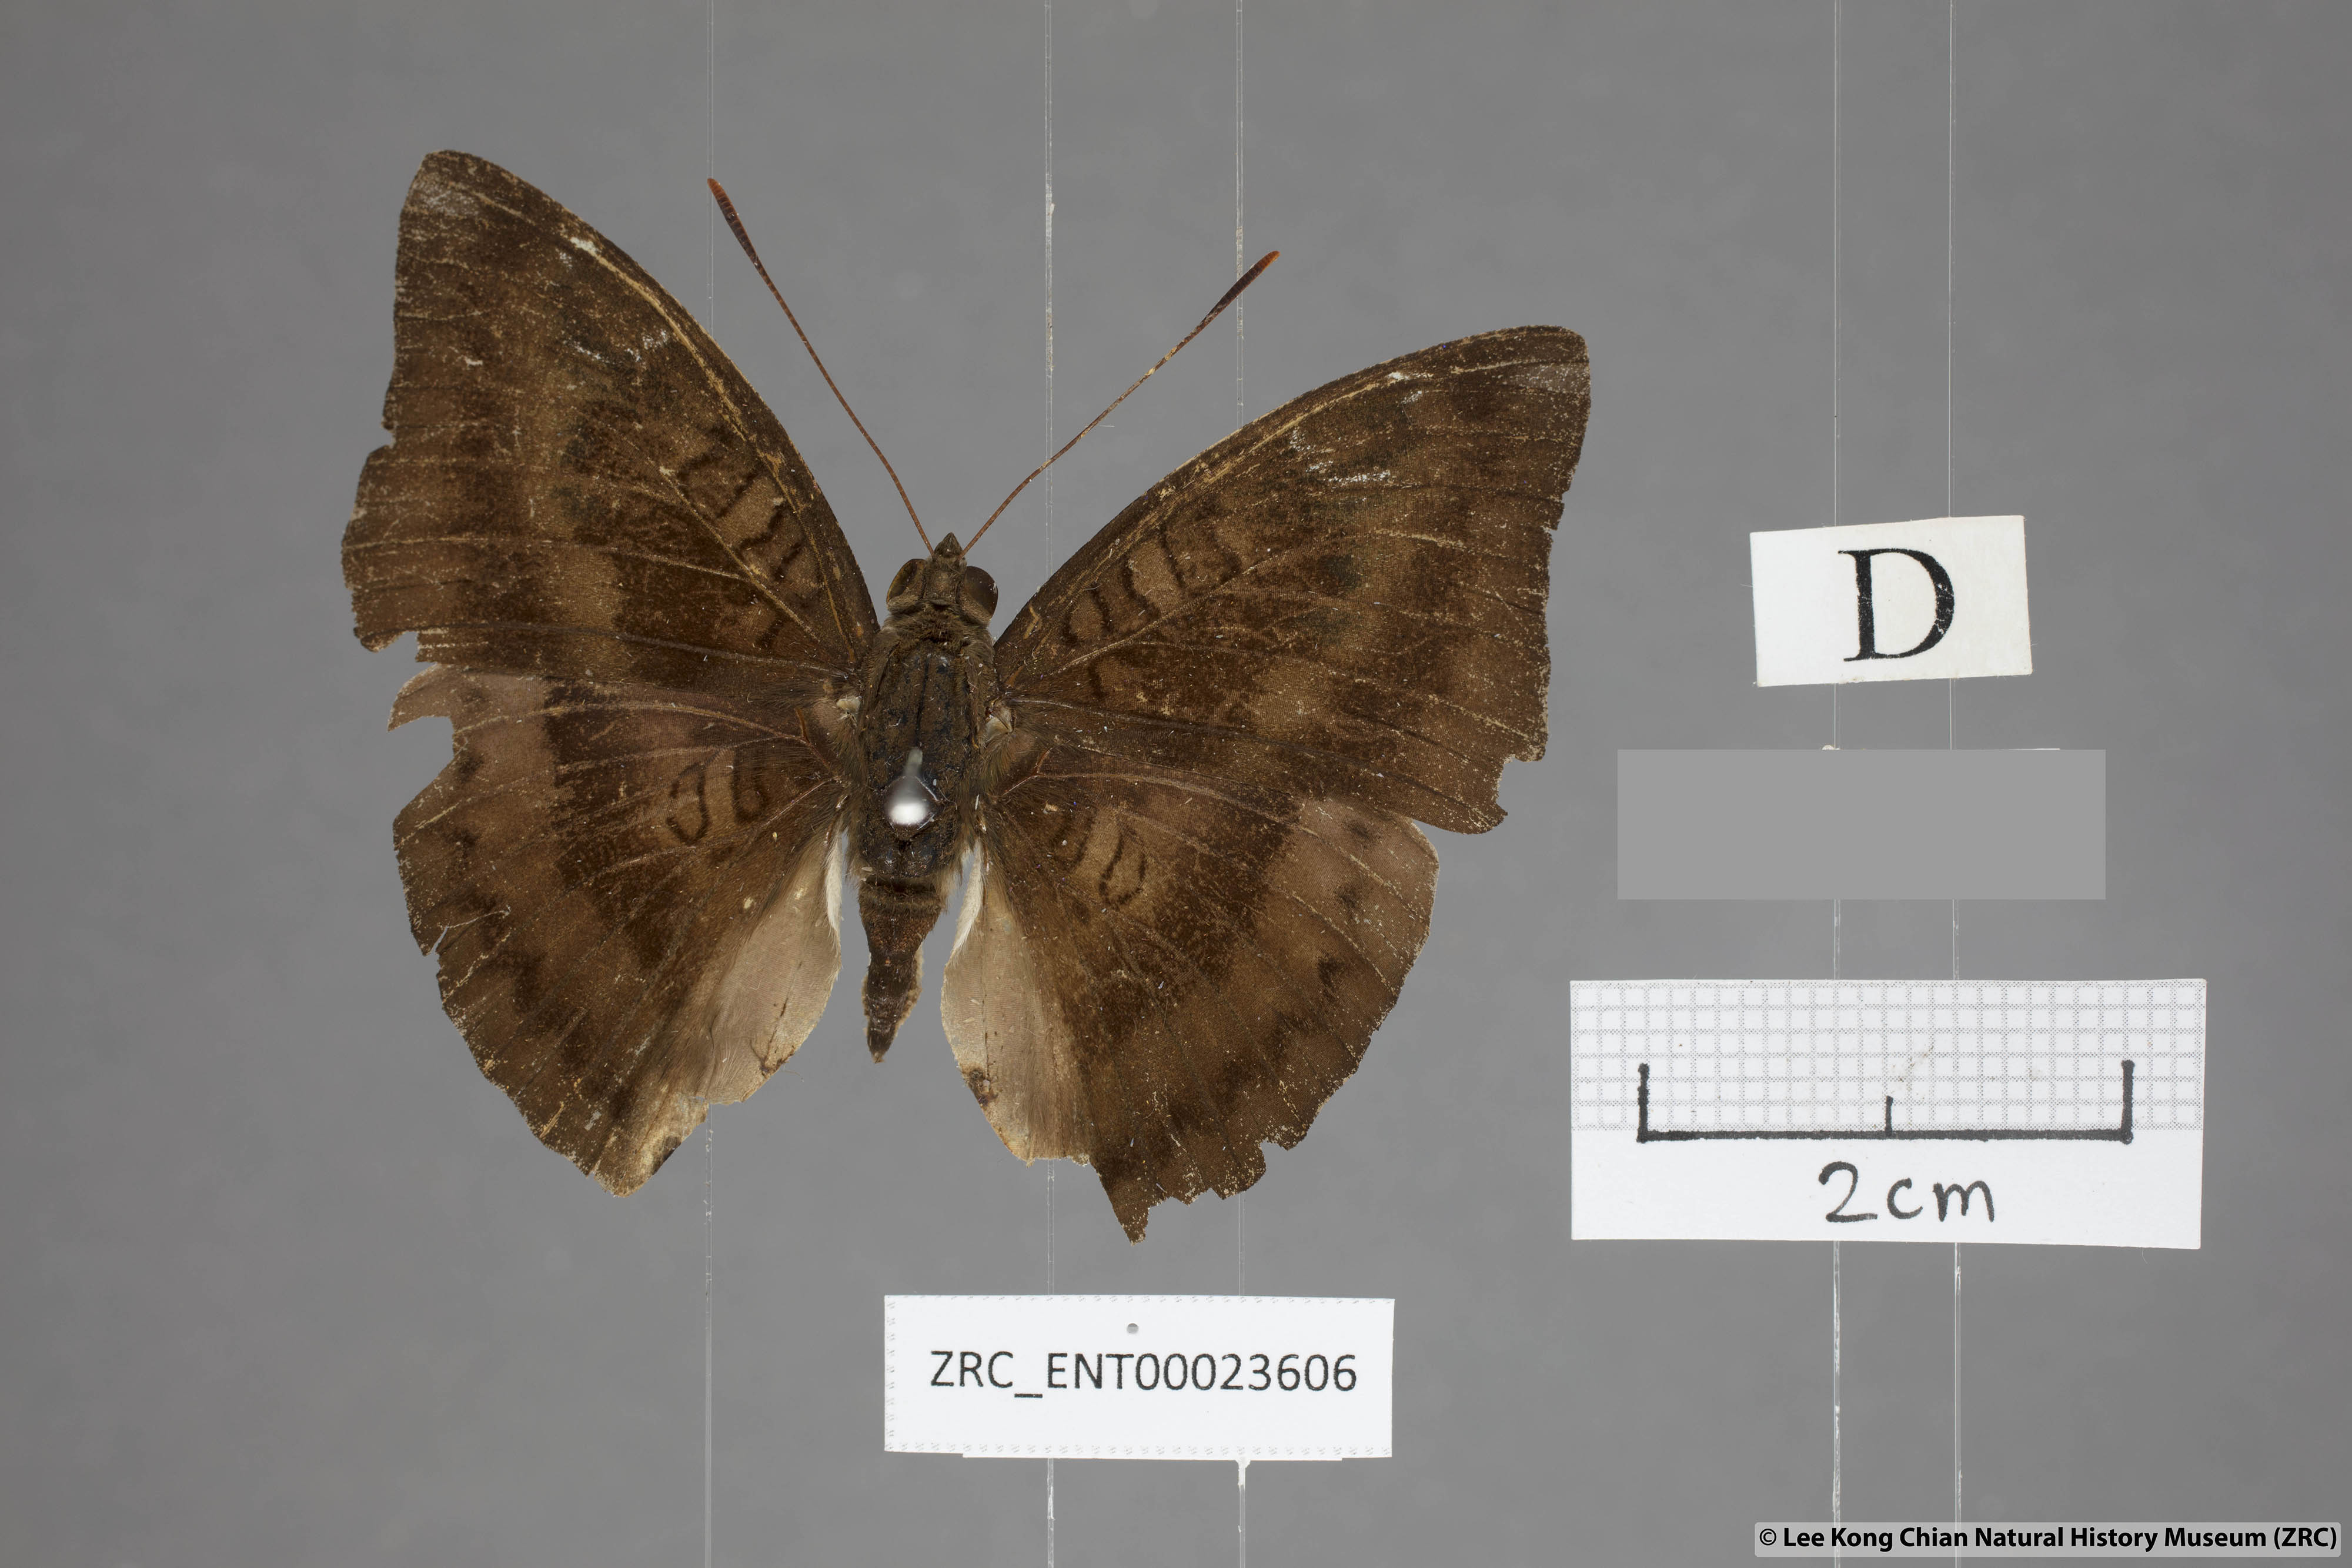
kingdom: Animalia
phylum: Arthropoda
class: Insecta
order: Lepidoptera
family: Nymphalidae
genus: Euthalia
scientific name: Euthalia alpheda
